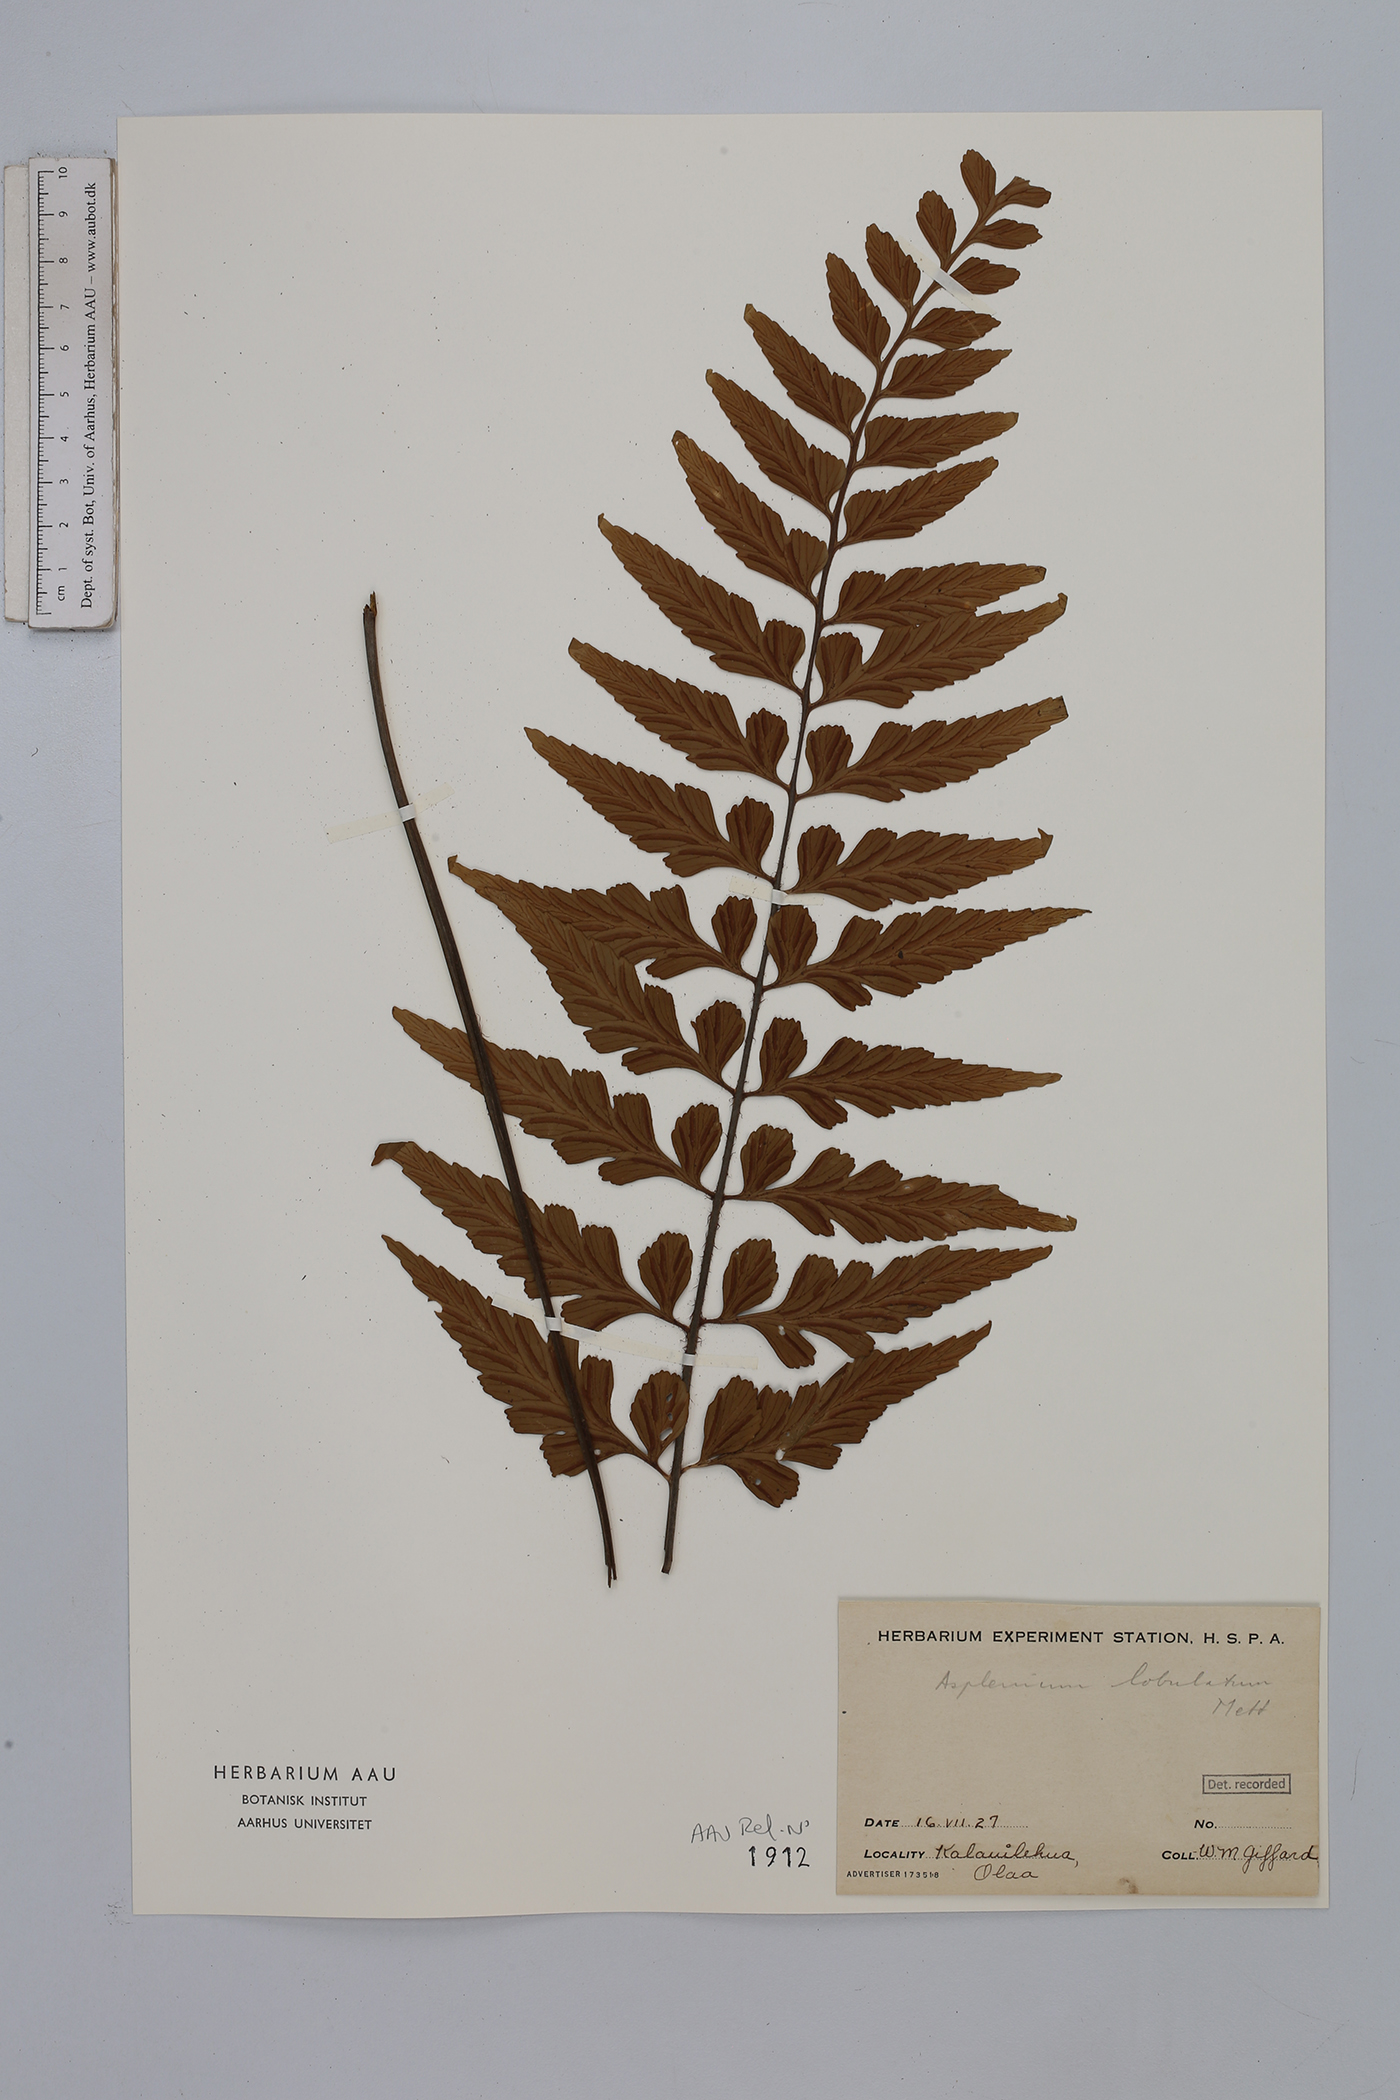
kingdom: Plantae
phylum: Tracheophyta
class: Polypodiopsida
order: Polypodiales
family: Aspleniaceae
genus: Asplenium
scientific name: Asplenium lobatum
